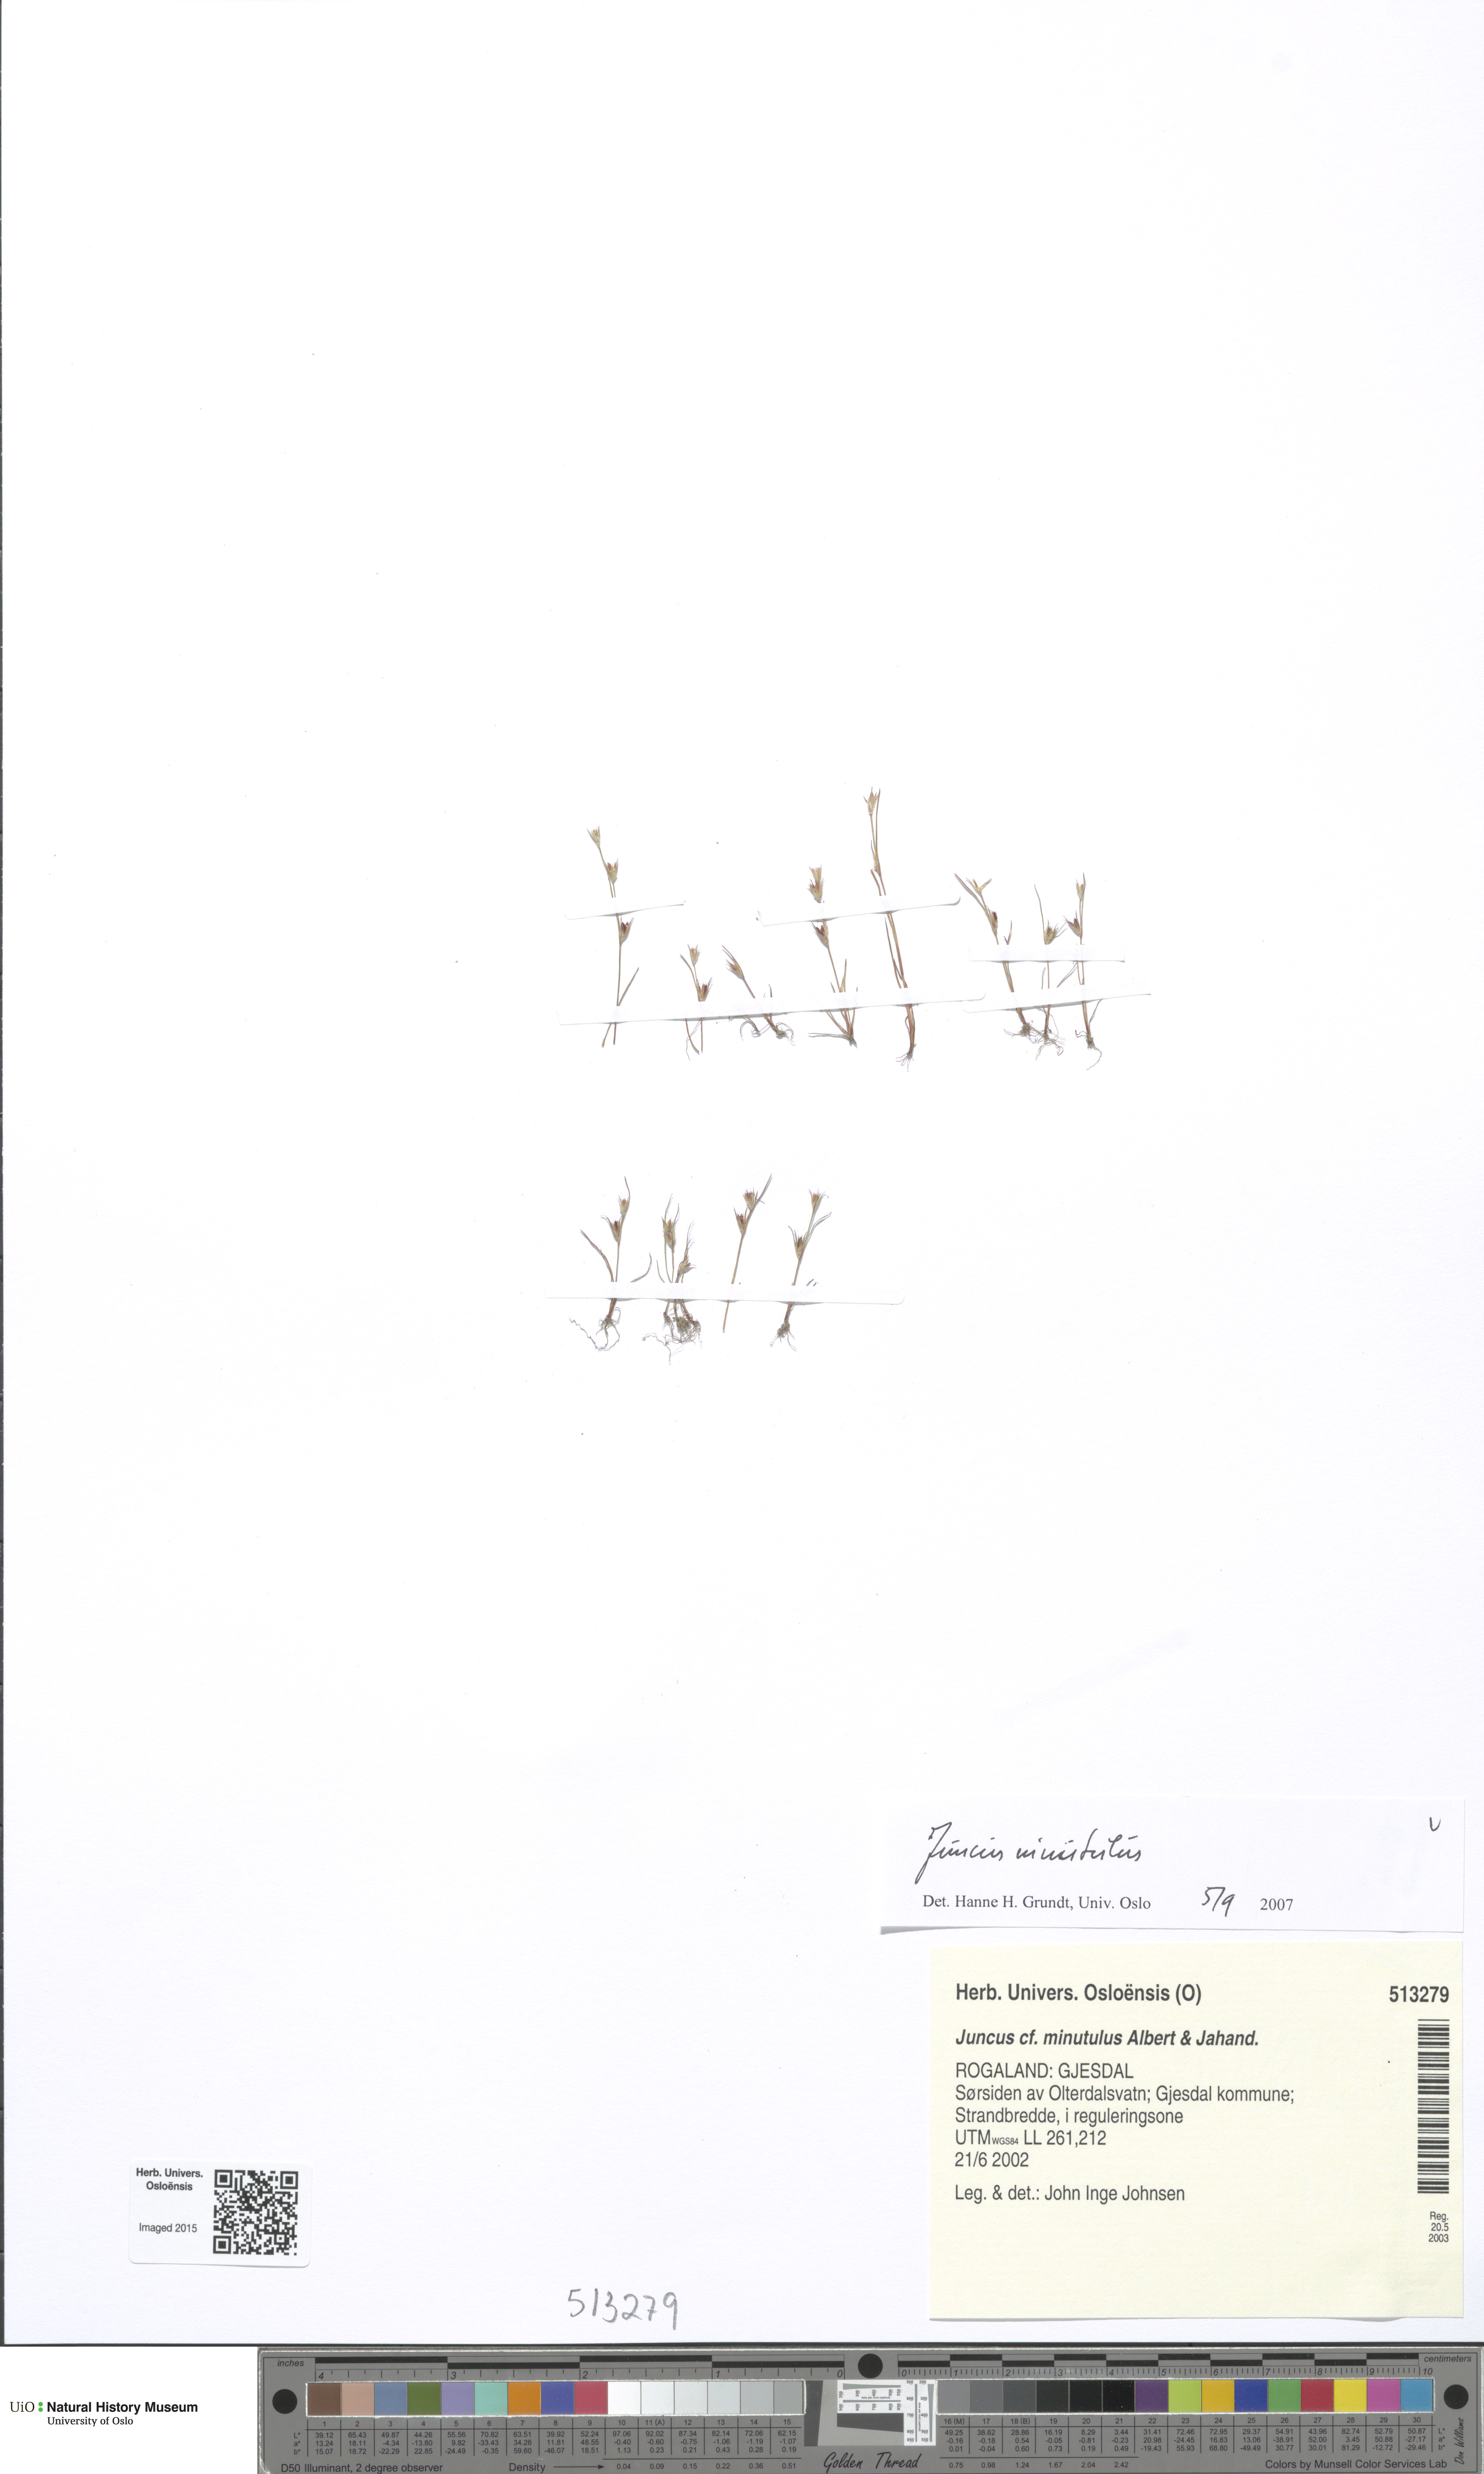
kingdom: Plantae
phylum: Tracheophyta
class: Liliopsida
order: Poales
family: Juncaceae
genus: Juncus
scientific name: Juncus minutulus
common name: Minute rush
